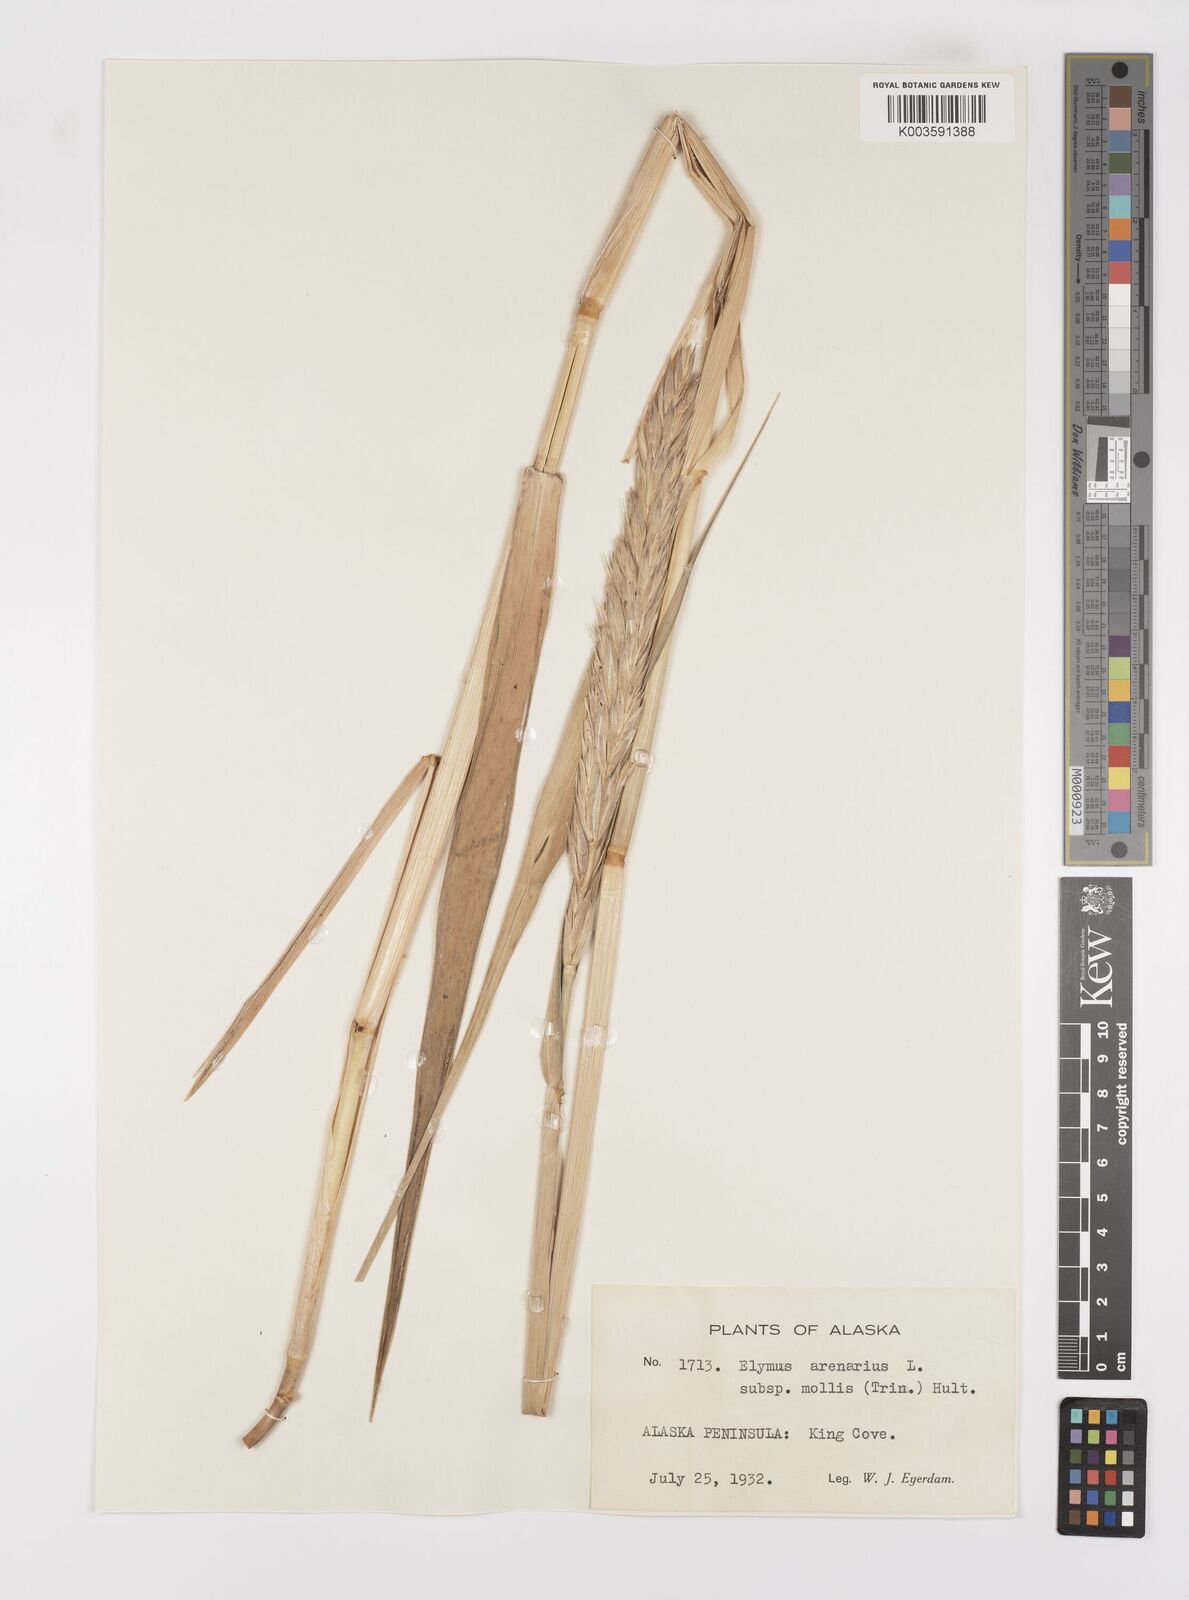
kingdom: Plantae
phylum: Tracheophyta
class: Liliopsida
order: Poales
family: Poaceae
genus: Leymus
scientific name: Leymus mollis
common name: American dune grass
